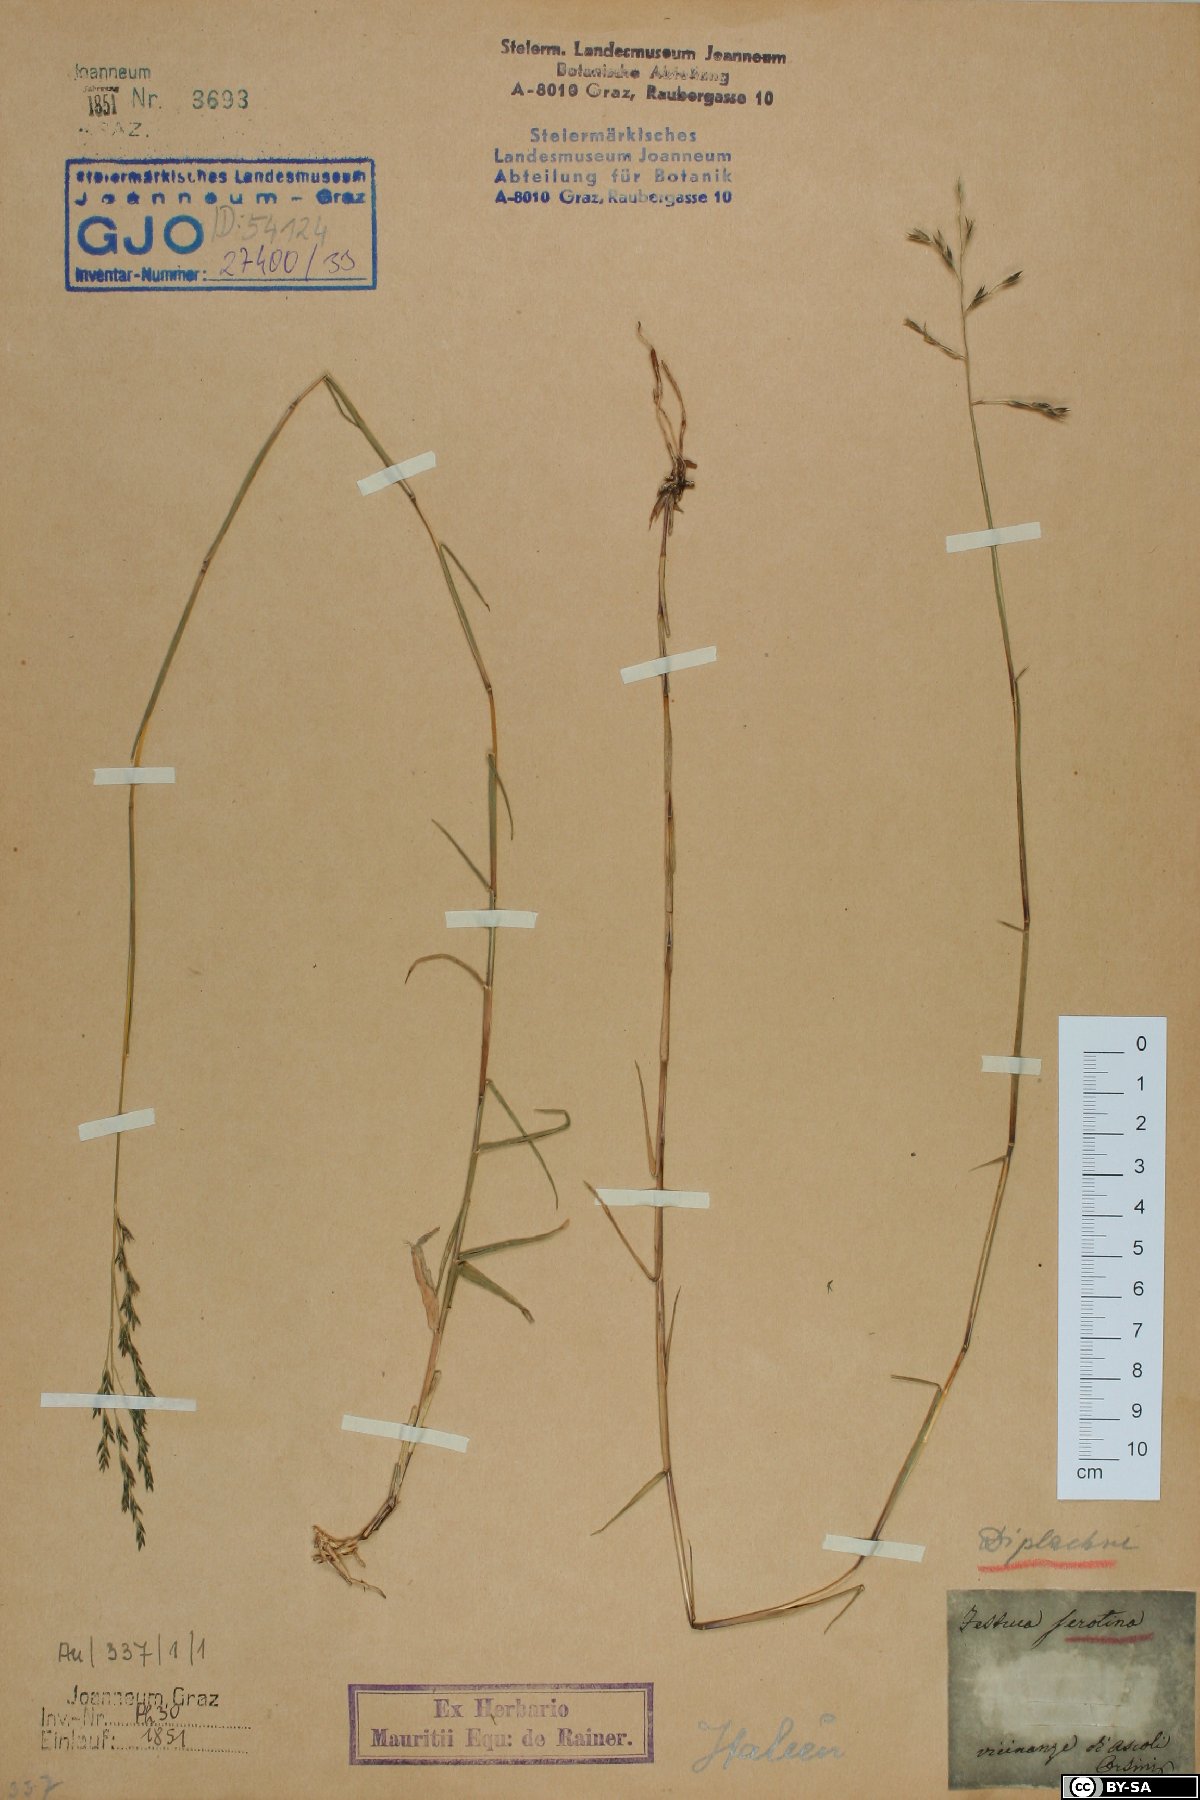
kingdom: Plantae
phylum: Tracheophyta
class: Liliopsida
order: Poales
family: Poaceae
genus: Cleistogenes
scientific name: Cleistogenes serotina
